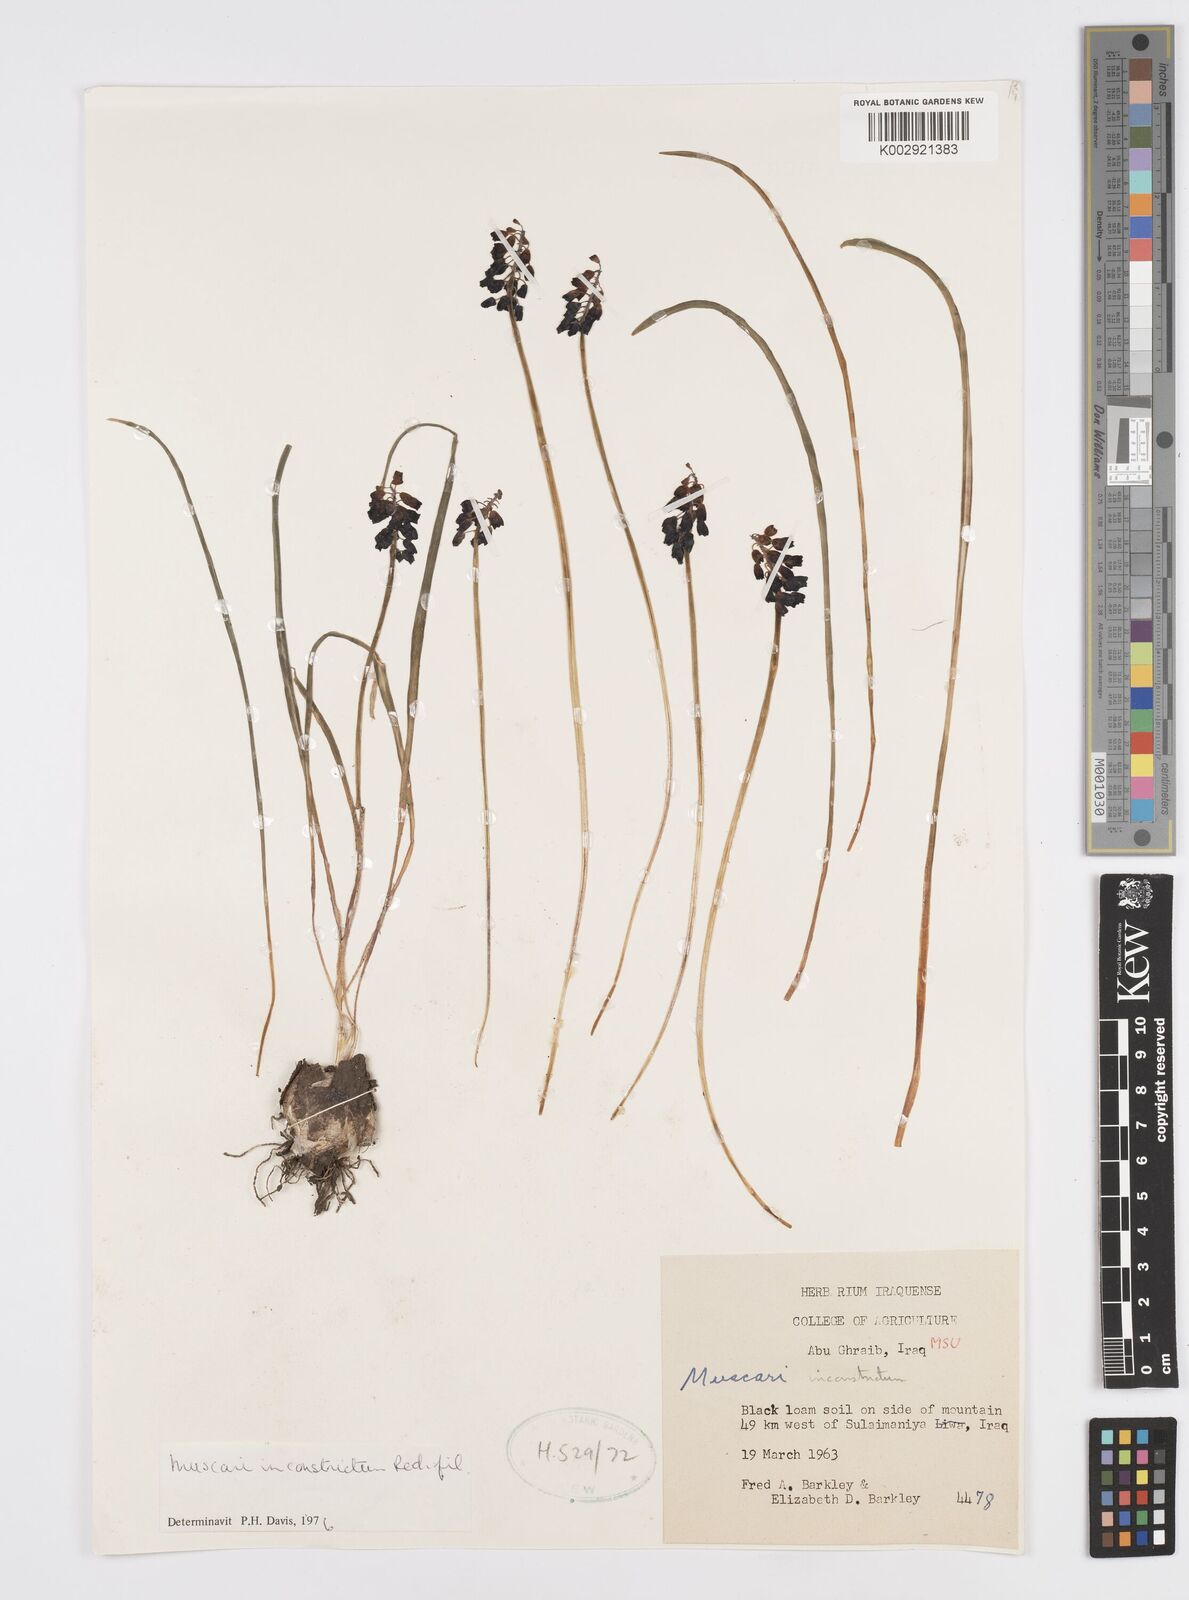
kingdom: Plantae
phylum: Tracheophyta
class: Liliopsida
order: Asparagales
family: Asparagaceae
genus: Muscari
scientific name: Muscari inconstrictum
